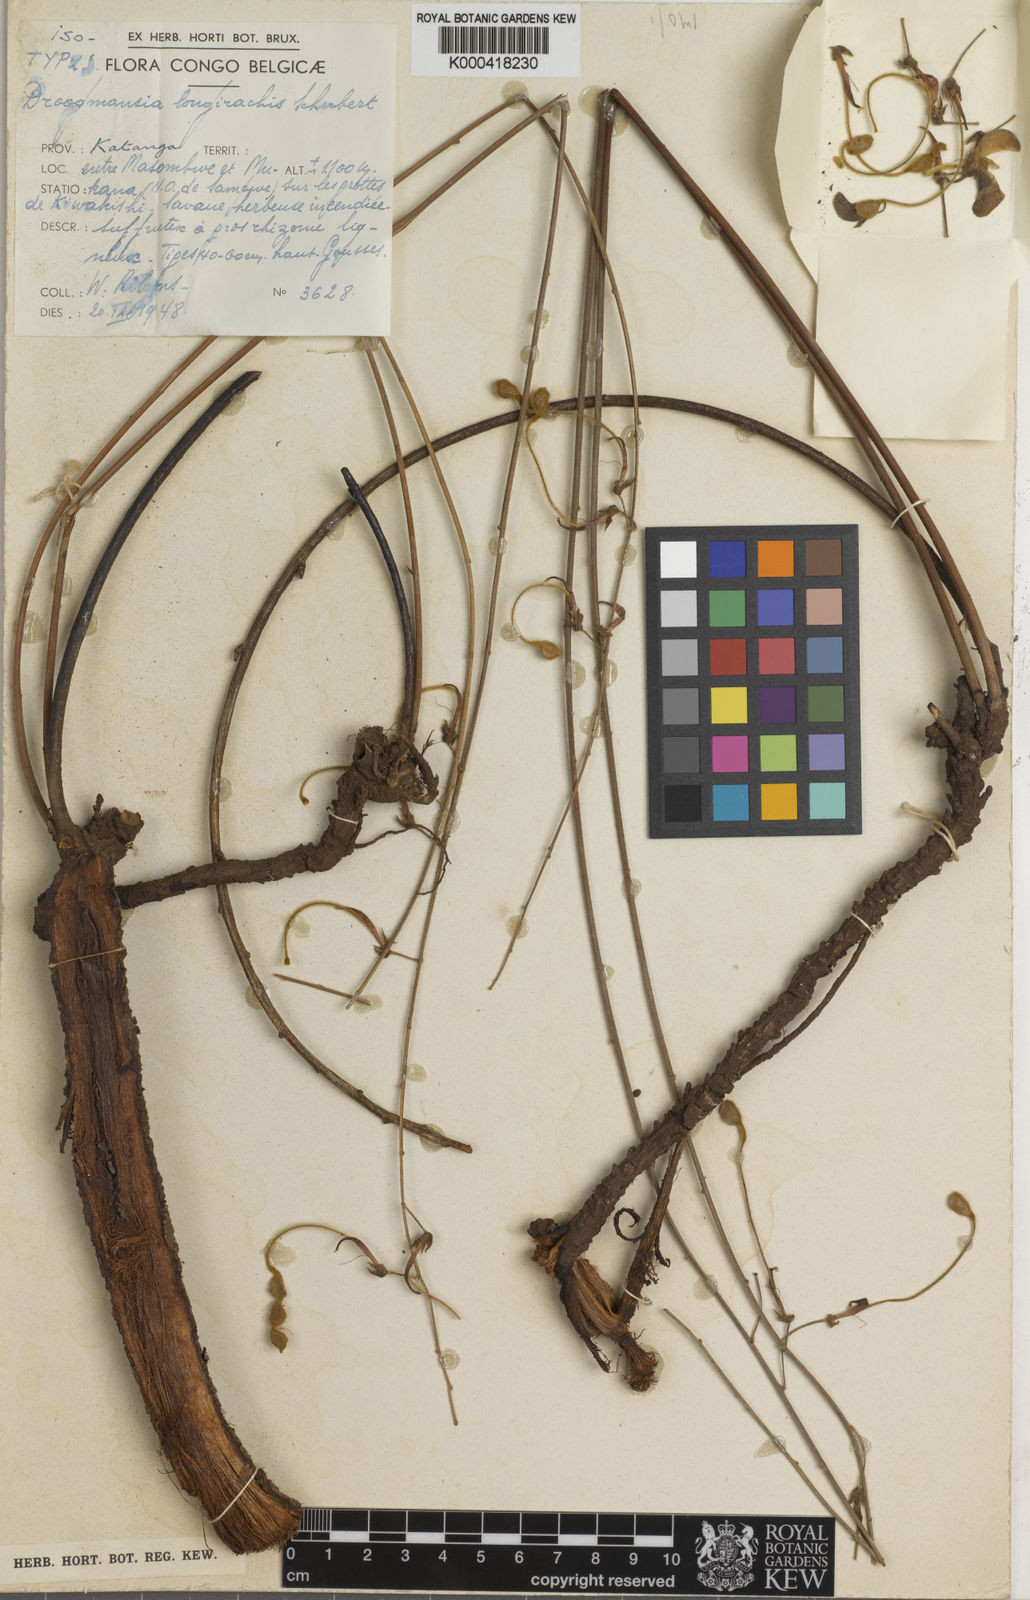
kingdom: Plantae
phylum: Tracheophyta
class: Magnoliopsida
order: Fabales
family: Fabaceae
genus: Droogmansia
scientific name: Droogmansia
